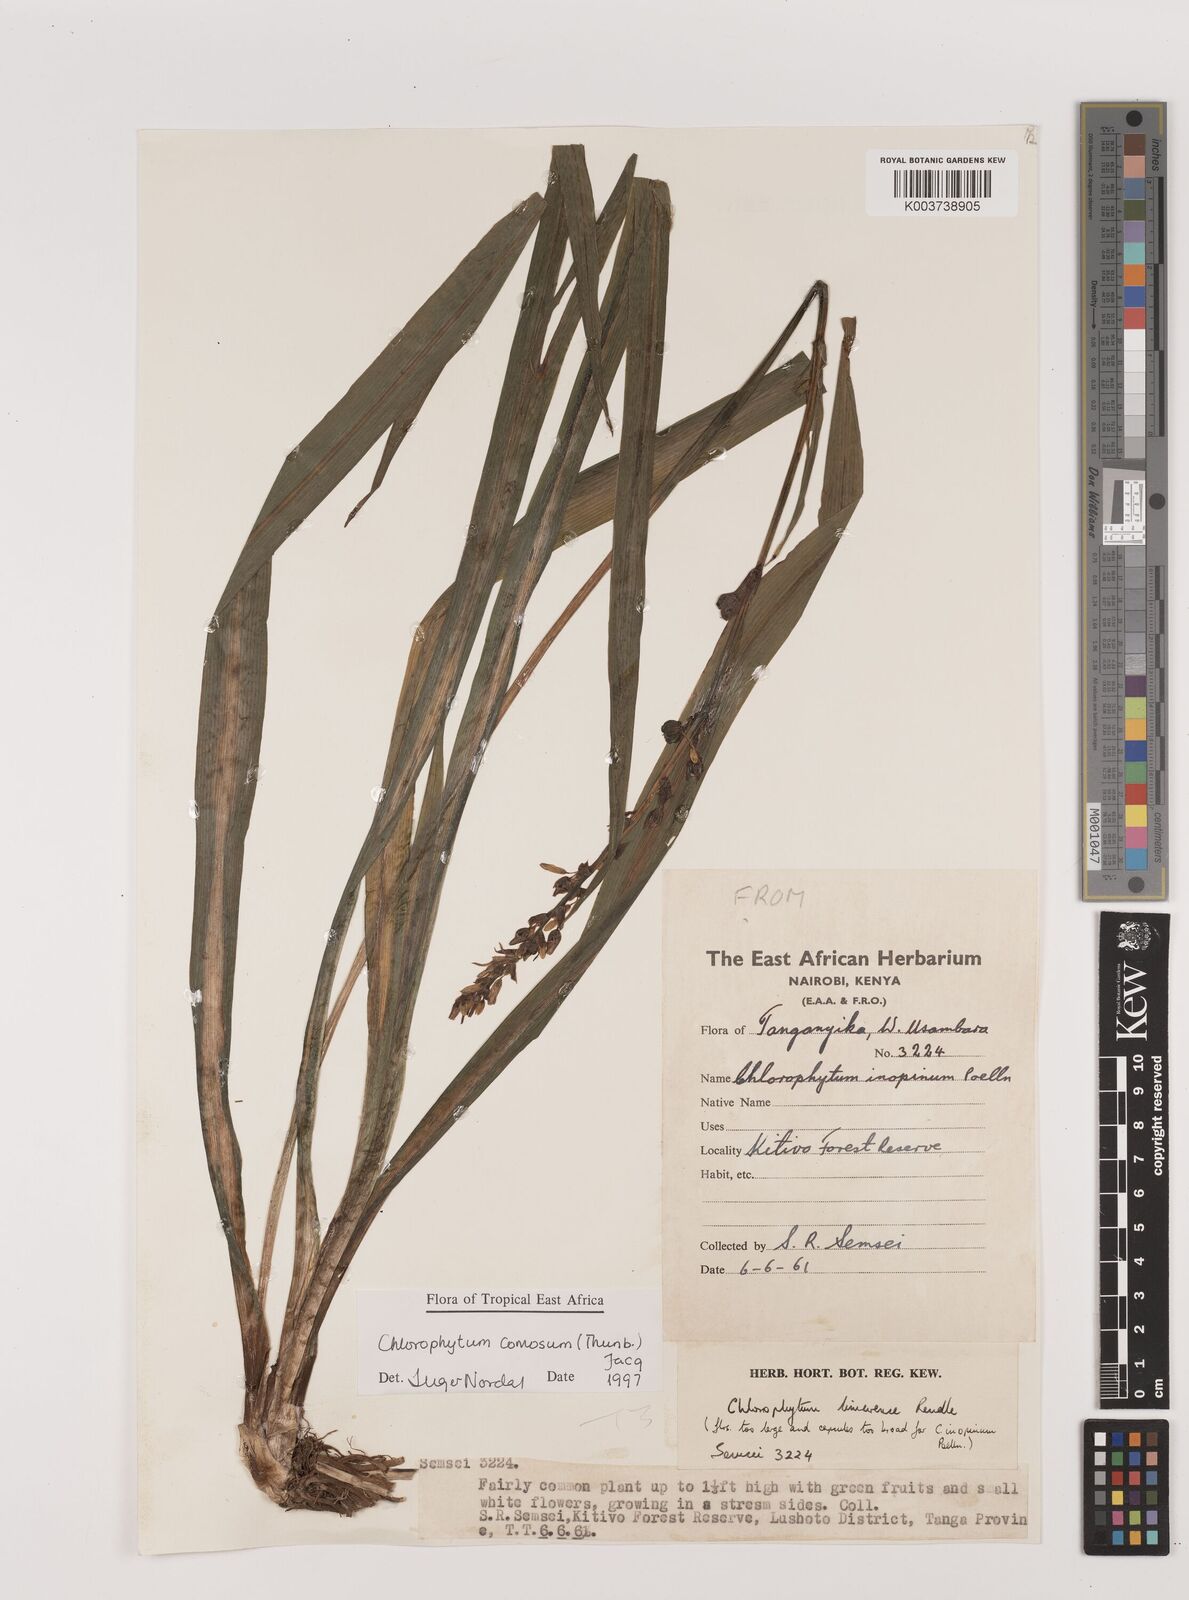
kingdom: Plantae
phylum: Tracheophyta
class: Liliopsida
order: Asparagales
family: Asparagaceae
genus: Chlorophytum
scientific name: Chlorophytum comosum
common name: Spider plant
